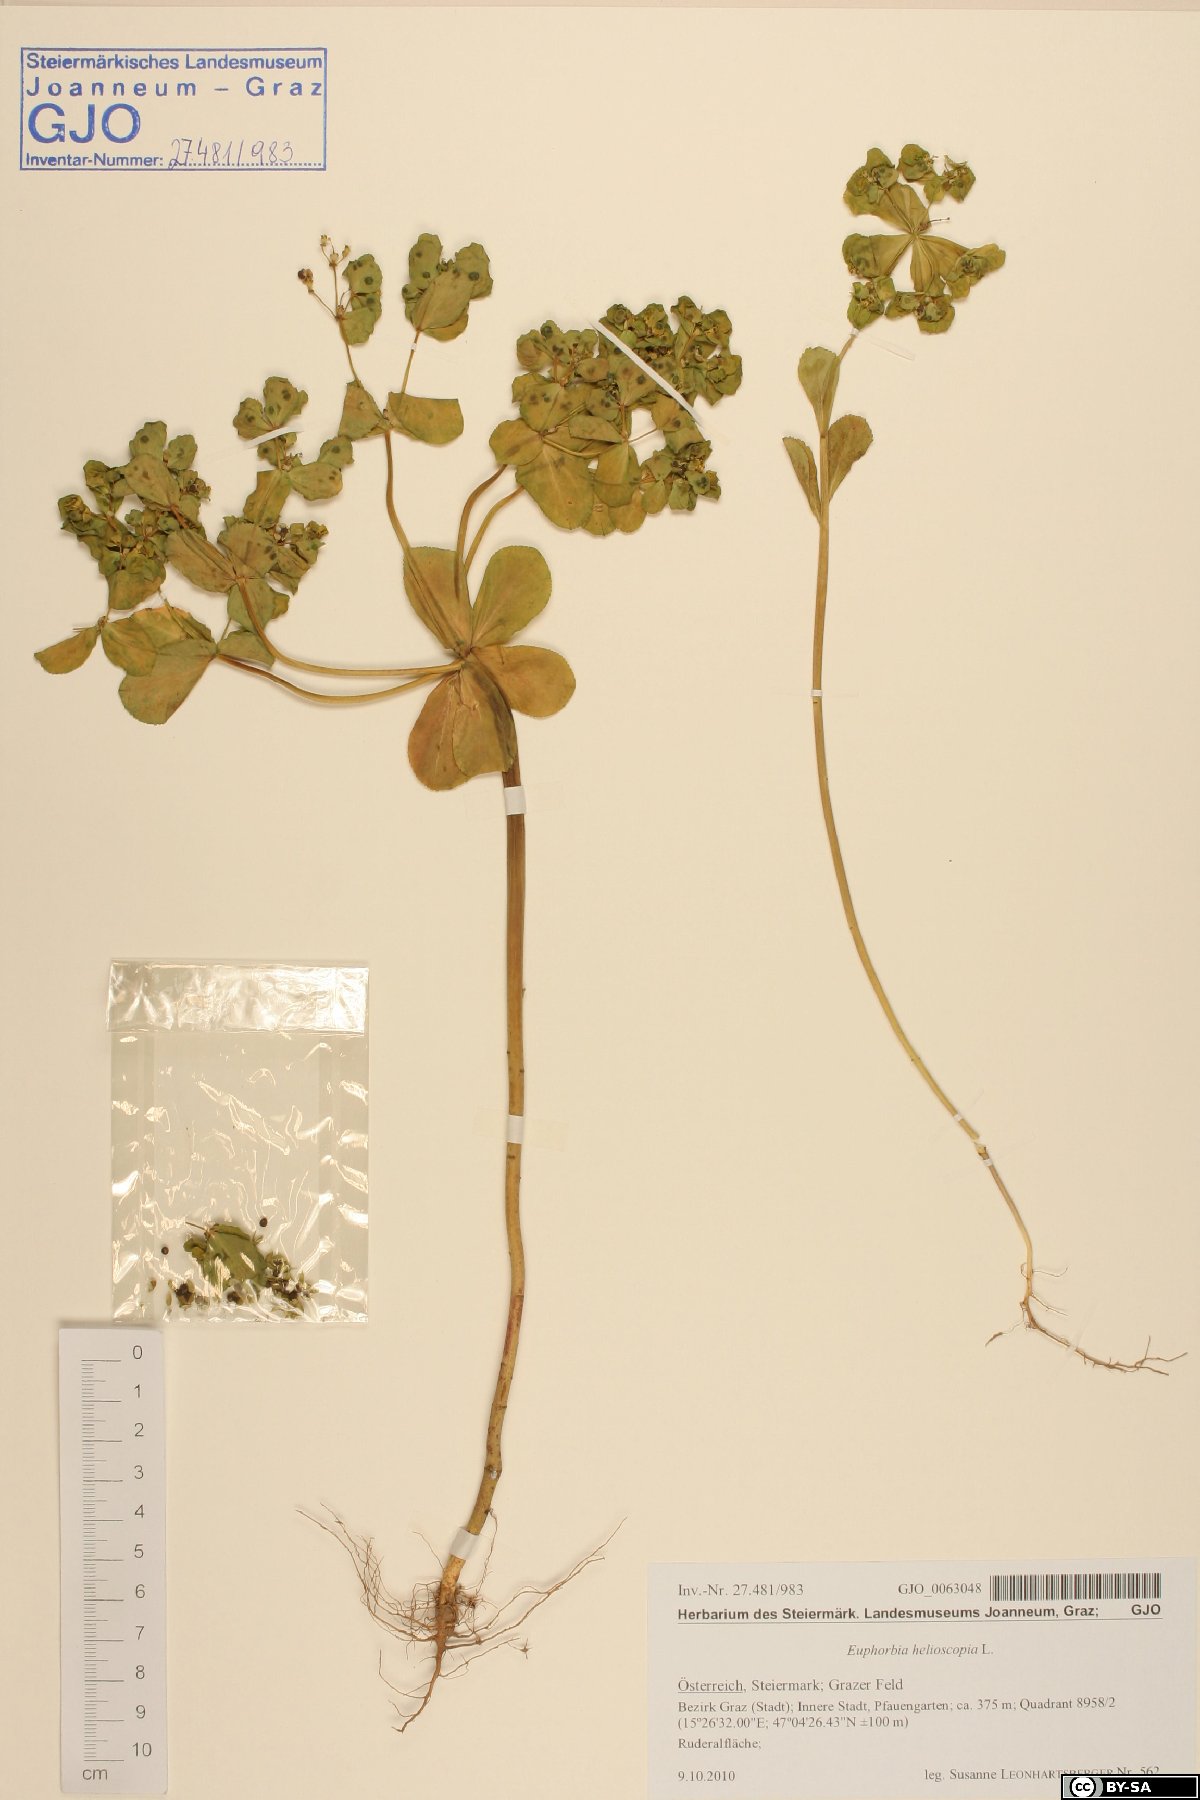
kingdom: Plantae
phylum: Tracheophyta
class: Magnoliopsida
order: Malpighiales
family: Euphorbiaceae
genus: Euphorbia
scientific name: Euphorbia helioscopia
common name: Sun spurge
